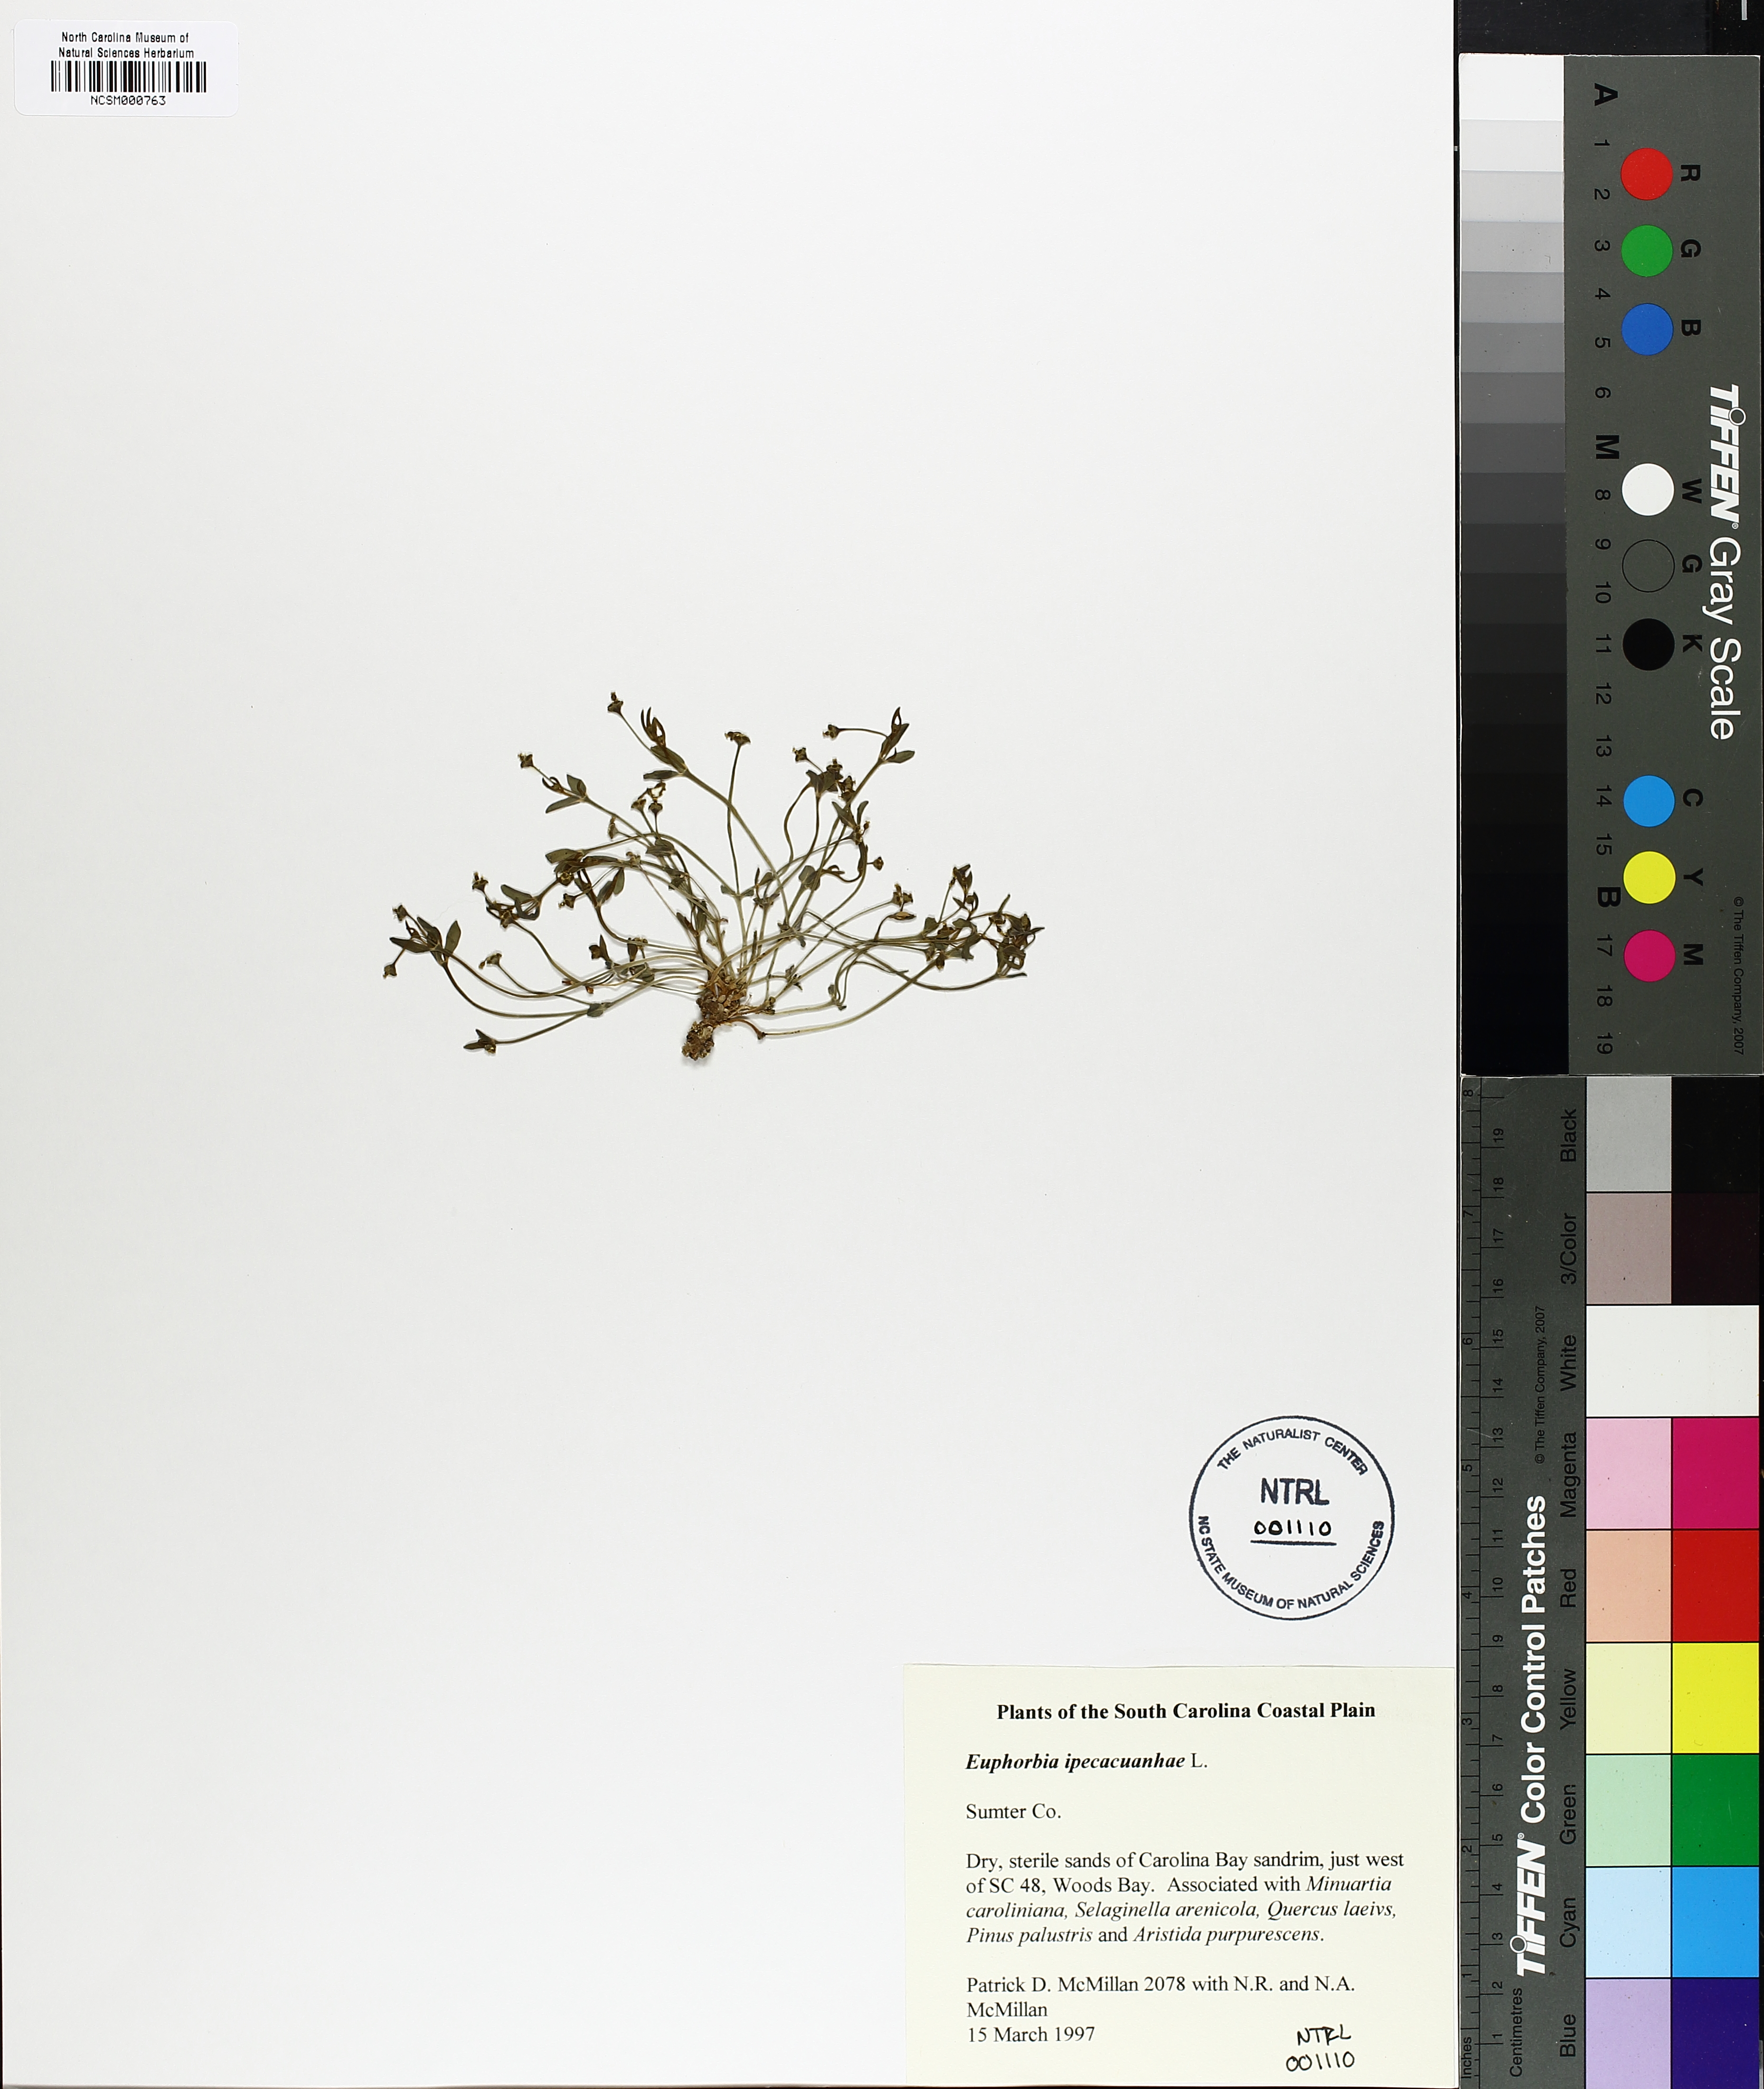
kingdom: Plantae
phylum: Tracheophyta
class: Magnoliopsida
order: Malpighiales
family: Euphorbiaceae
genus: Euphorbia
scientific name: Euphorbia ipecacuanhae
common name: Carolina ipecac
